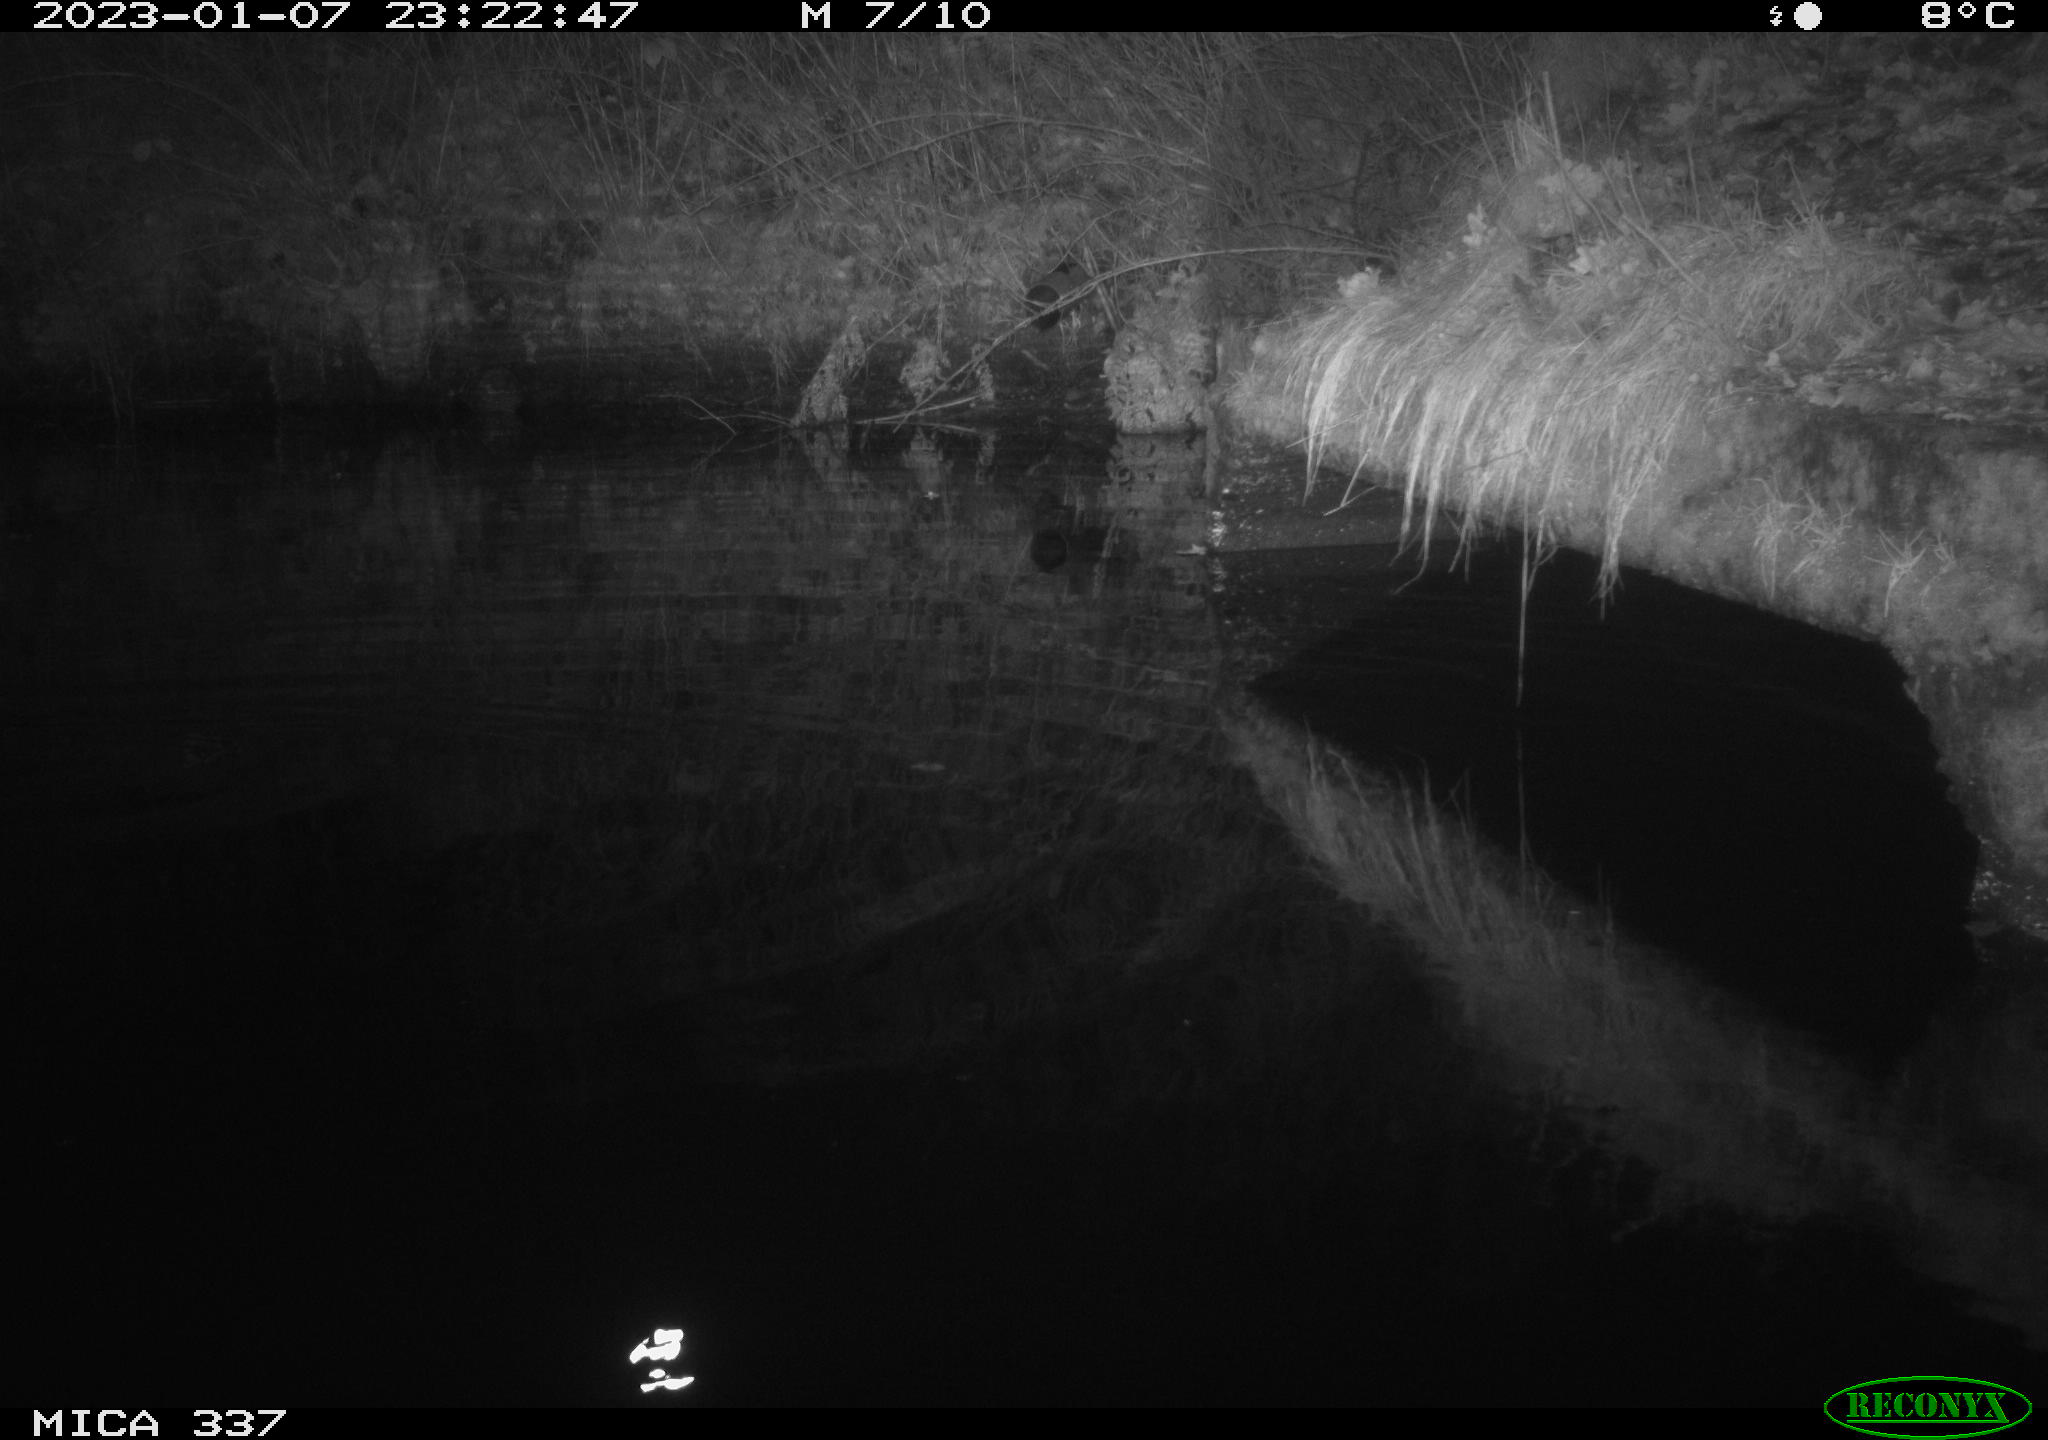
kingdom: Animalia
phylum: Chordata
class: Aves
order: Anseriformes
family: Anatidae
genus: Anas
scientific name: Anas
